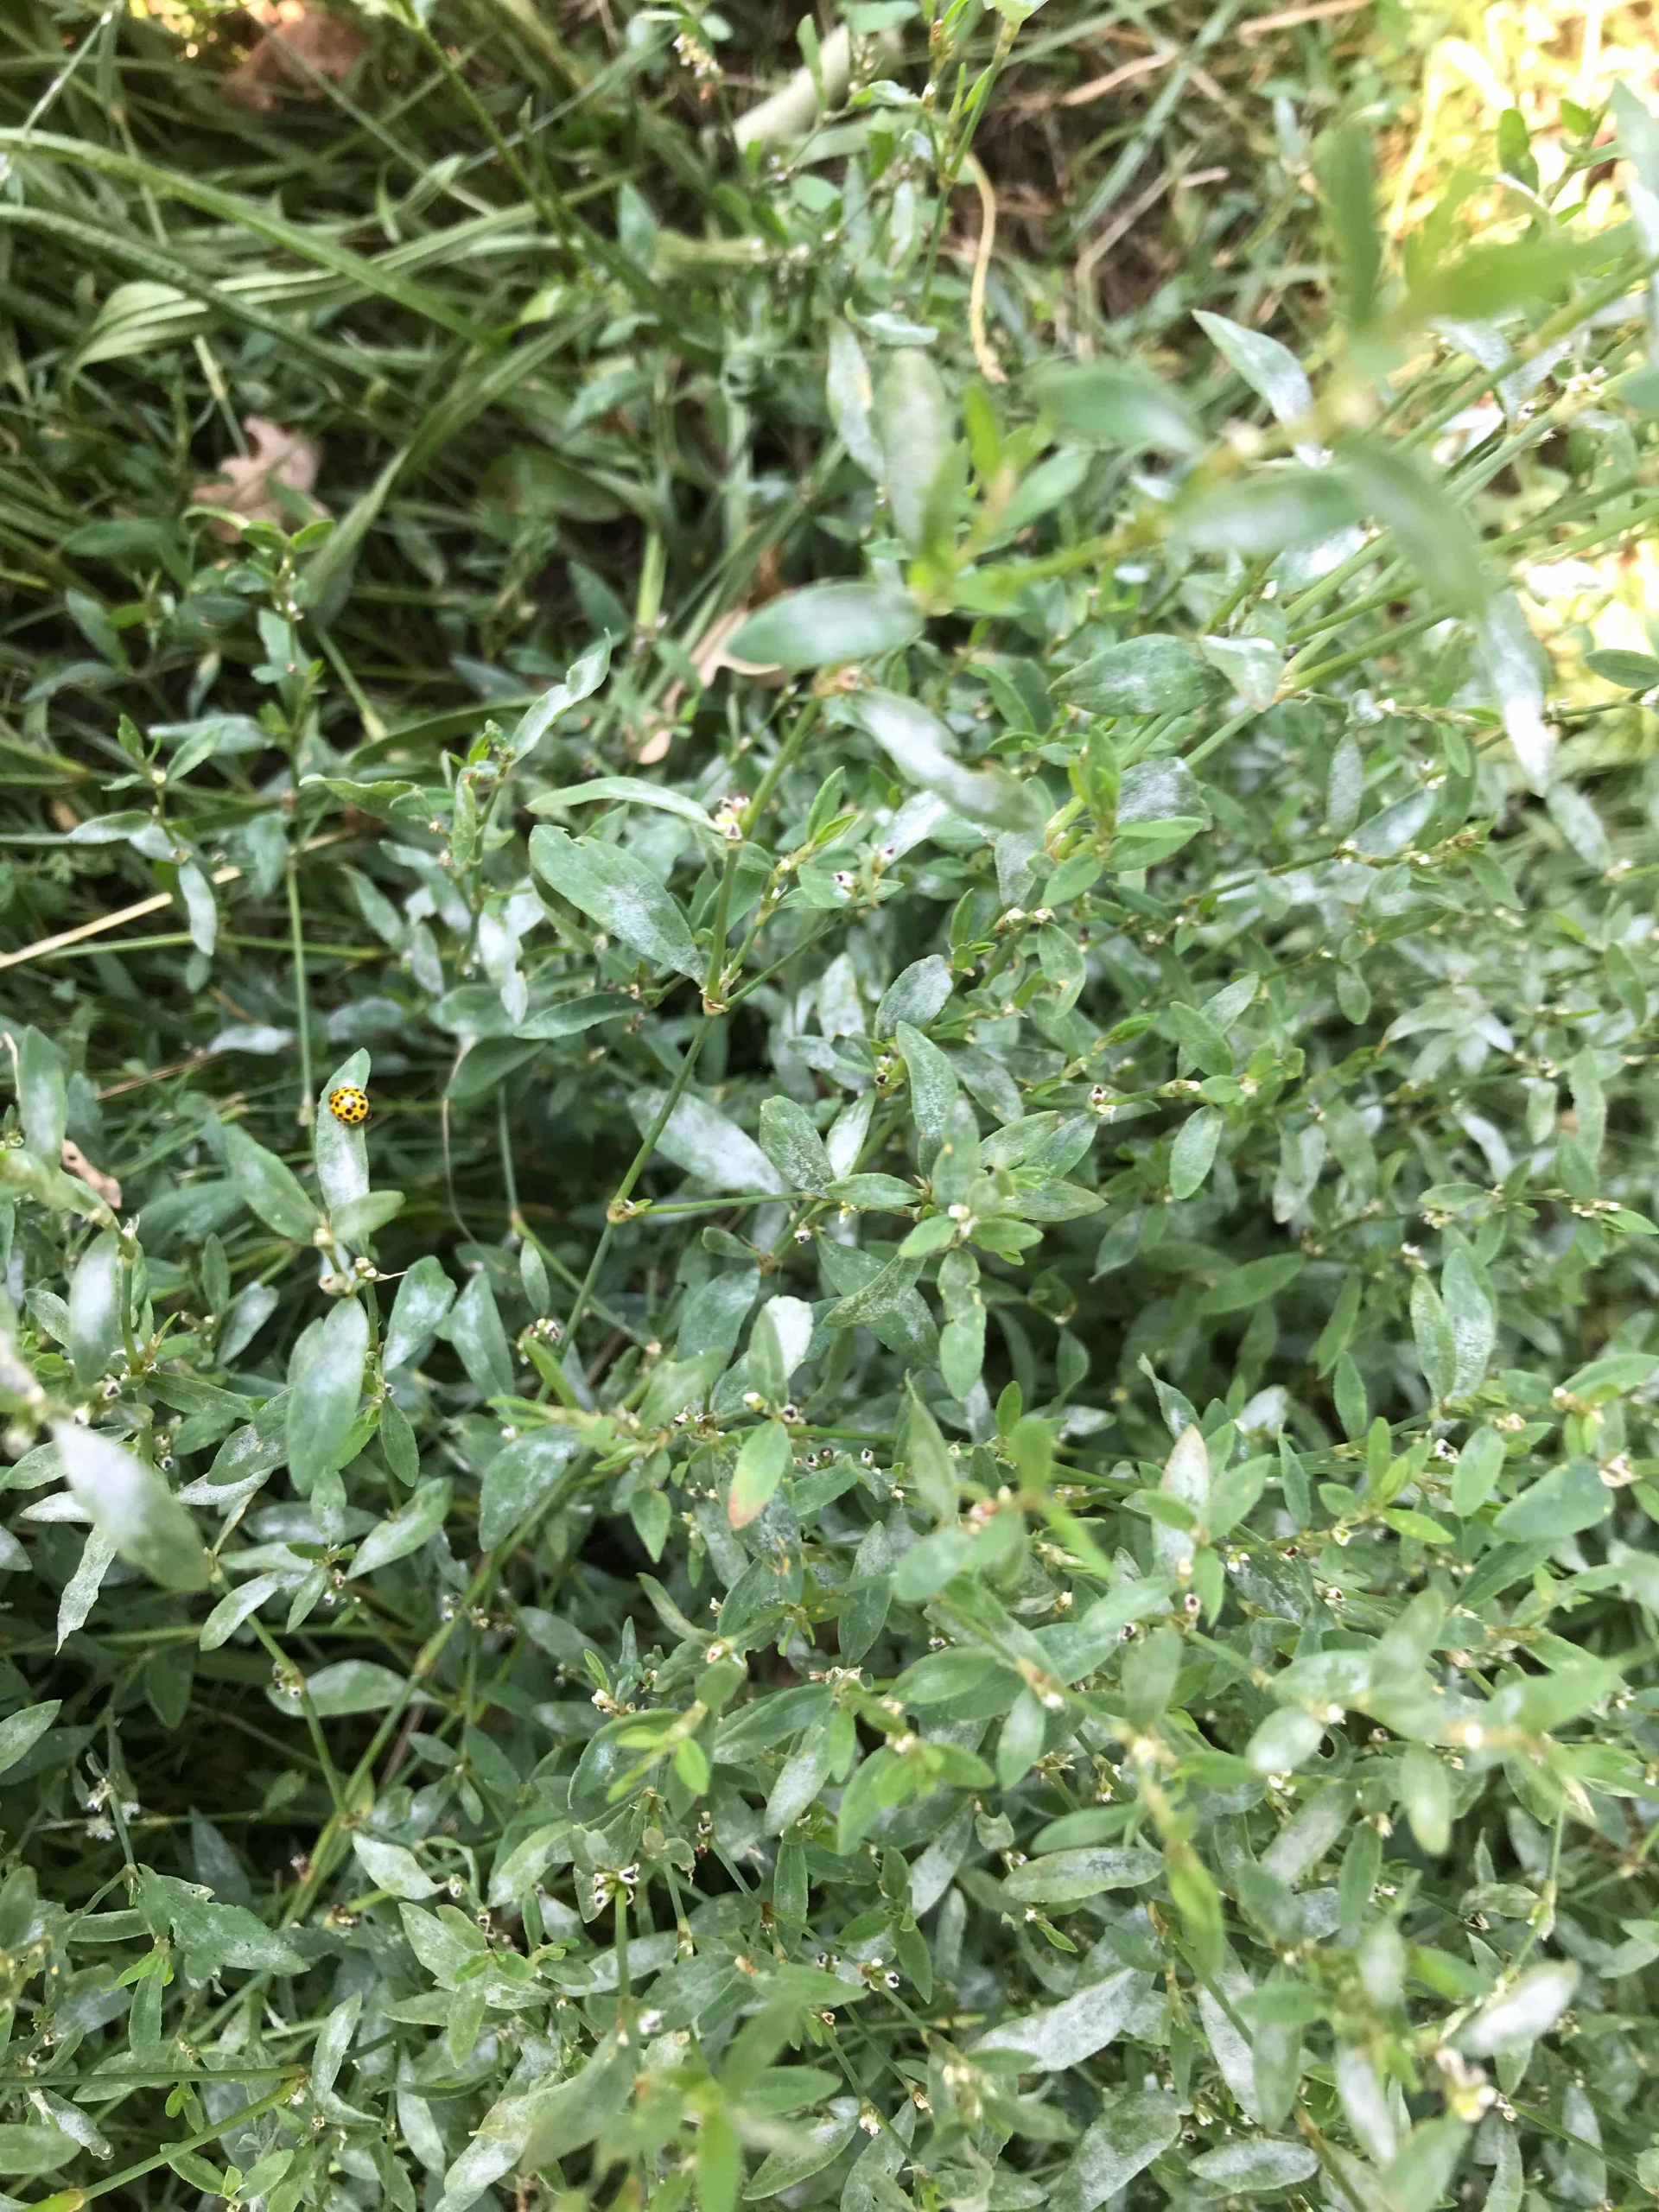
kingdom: Animalia
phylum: Arthropoda
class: Insecta
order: Coleoptera
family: Coccinellidae
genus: Psyllobora
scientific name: Psyllobora vigintiduopunctata
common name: Toogtyveplettet mariehøne
